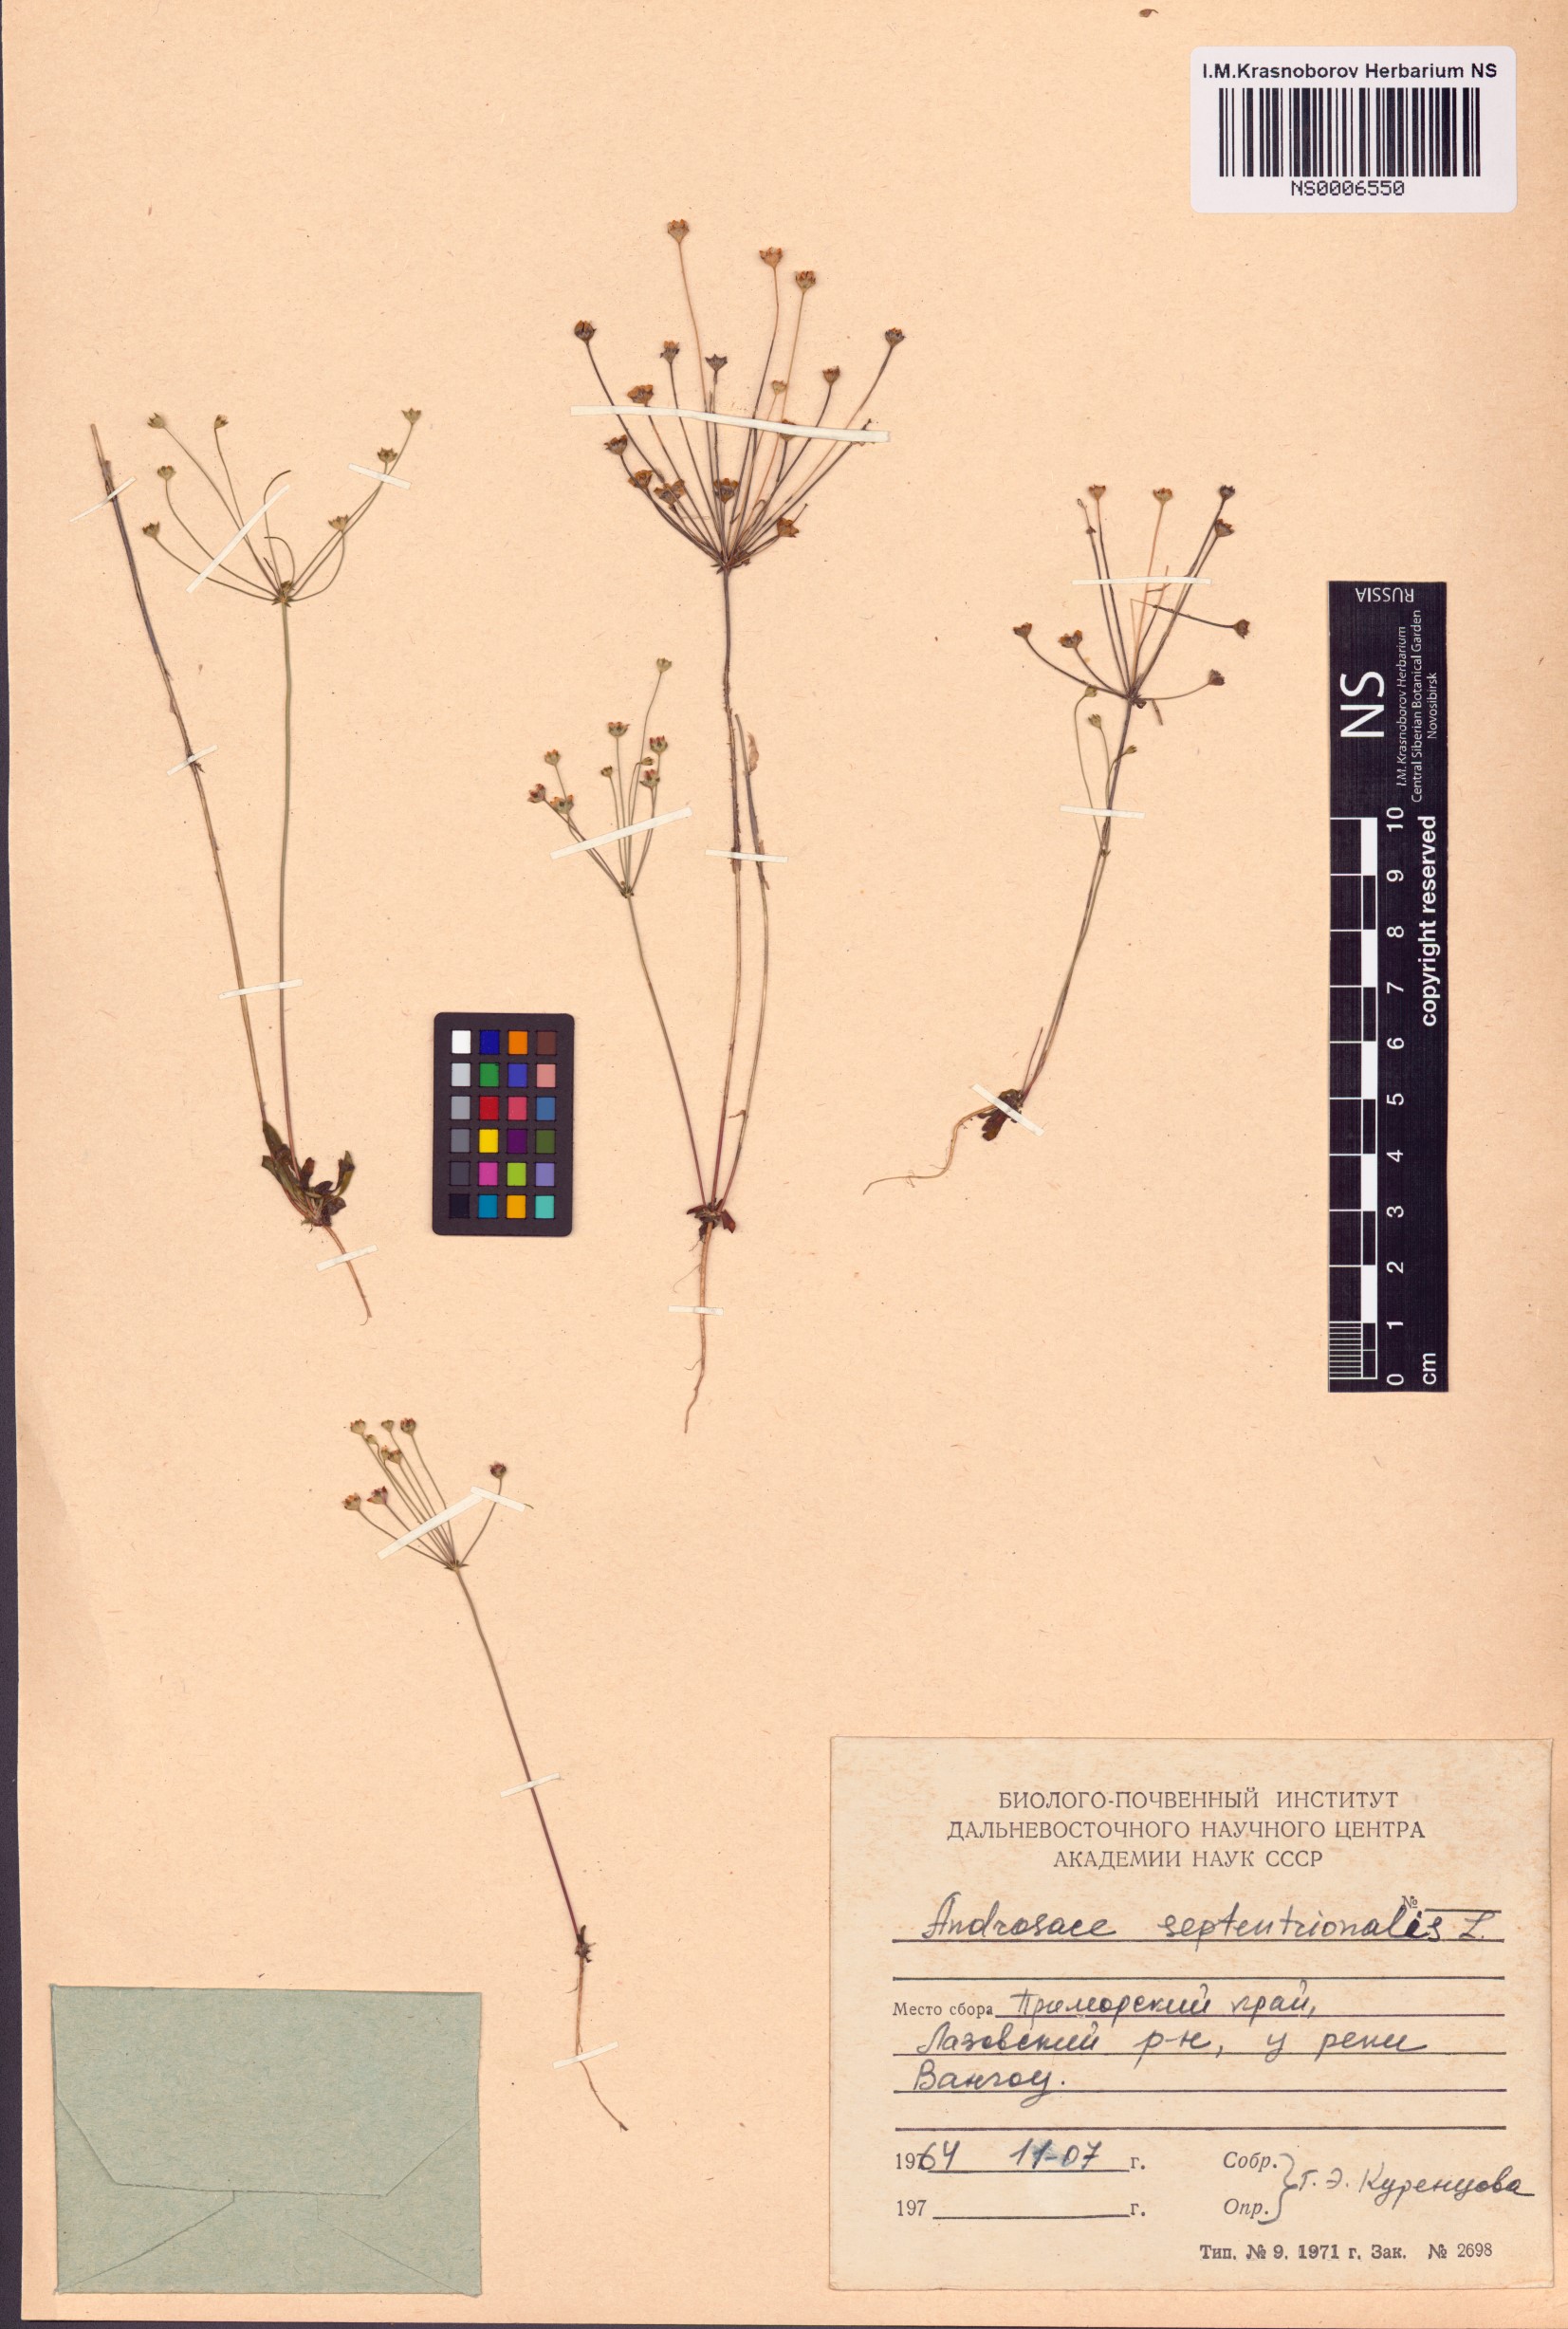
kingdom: Plantae
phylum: Tracheophyta
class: Magnoliopsida
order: Ericales
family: Primulaceae
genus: Androsace
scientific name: Androsace septentrionalis
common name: Hairy northern fairy-candelabra
